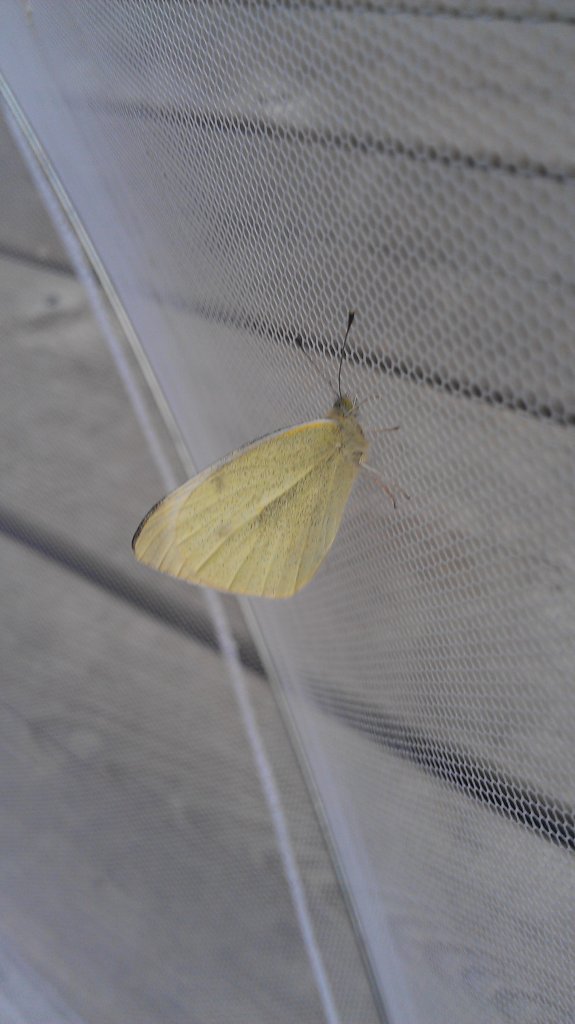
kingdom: Animalia
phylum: Arthropoda
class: Insecta
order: Lepidoptera
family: Pieridae
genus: Pieris
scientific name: Pieris rapae
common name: Cabbage White
